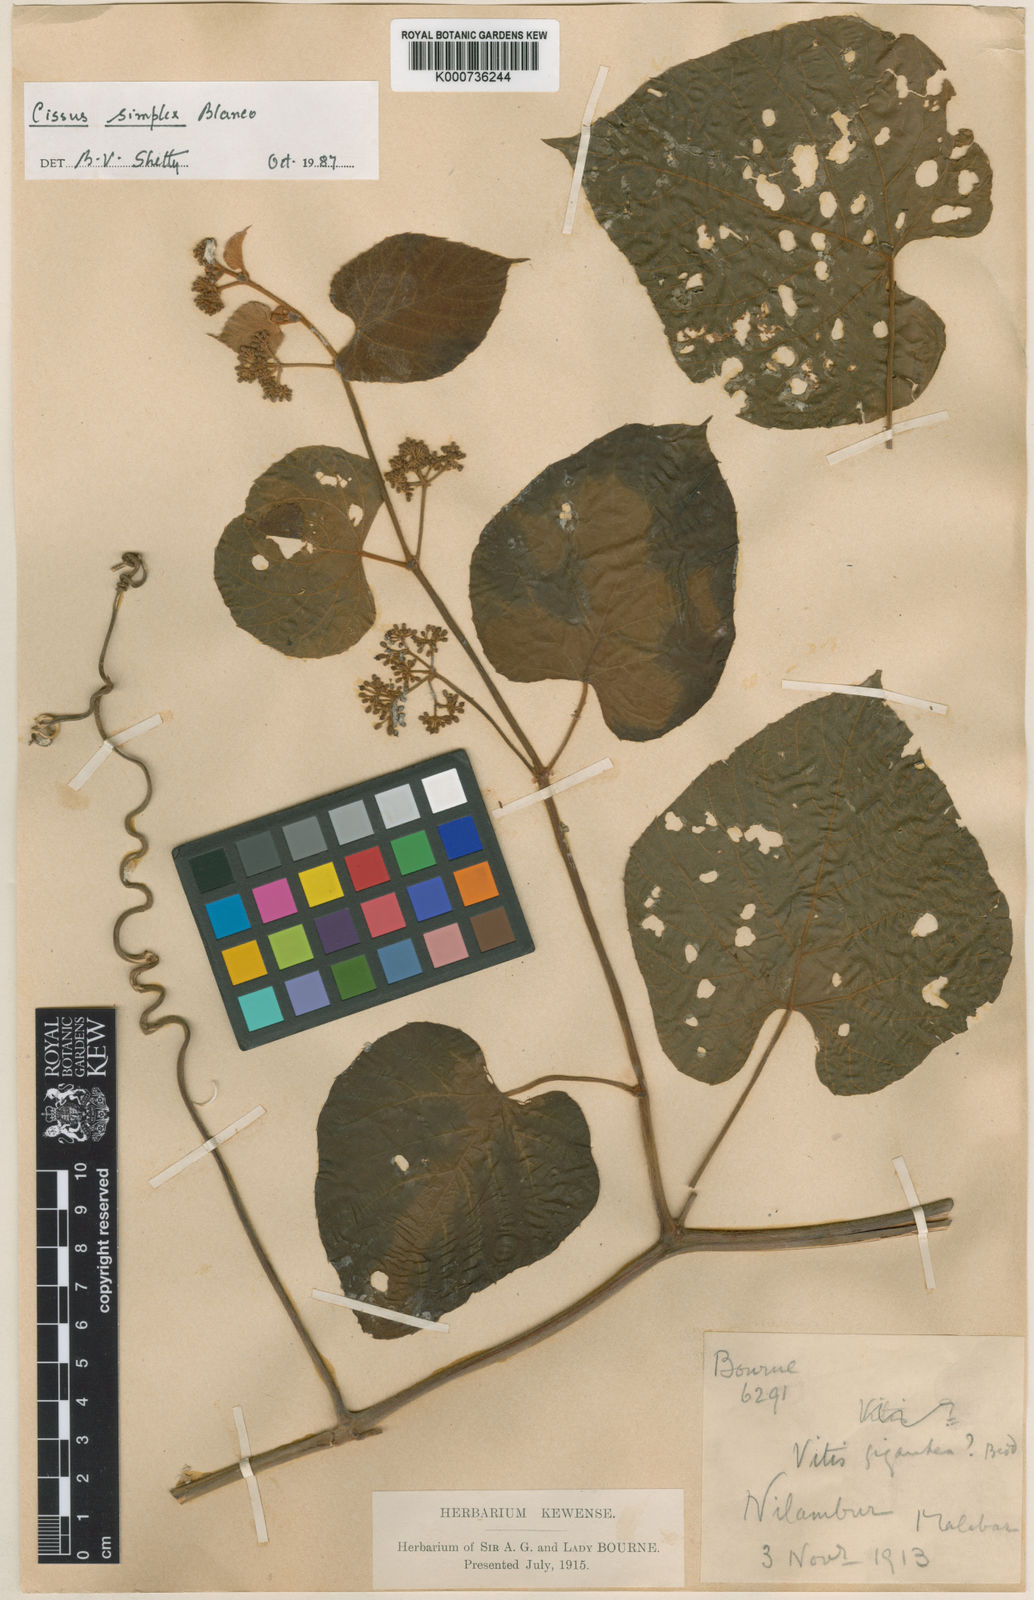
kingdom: Plantae
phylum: Tracheophyta
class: Magnoliopsida
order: Vitales
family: Vitaceae
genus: Cissus
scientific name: Cissus
